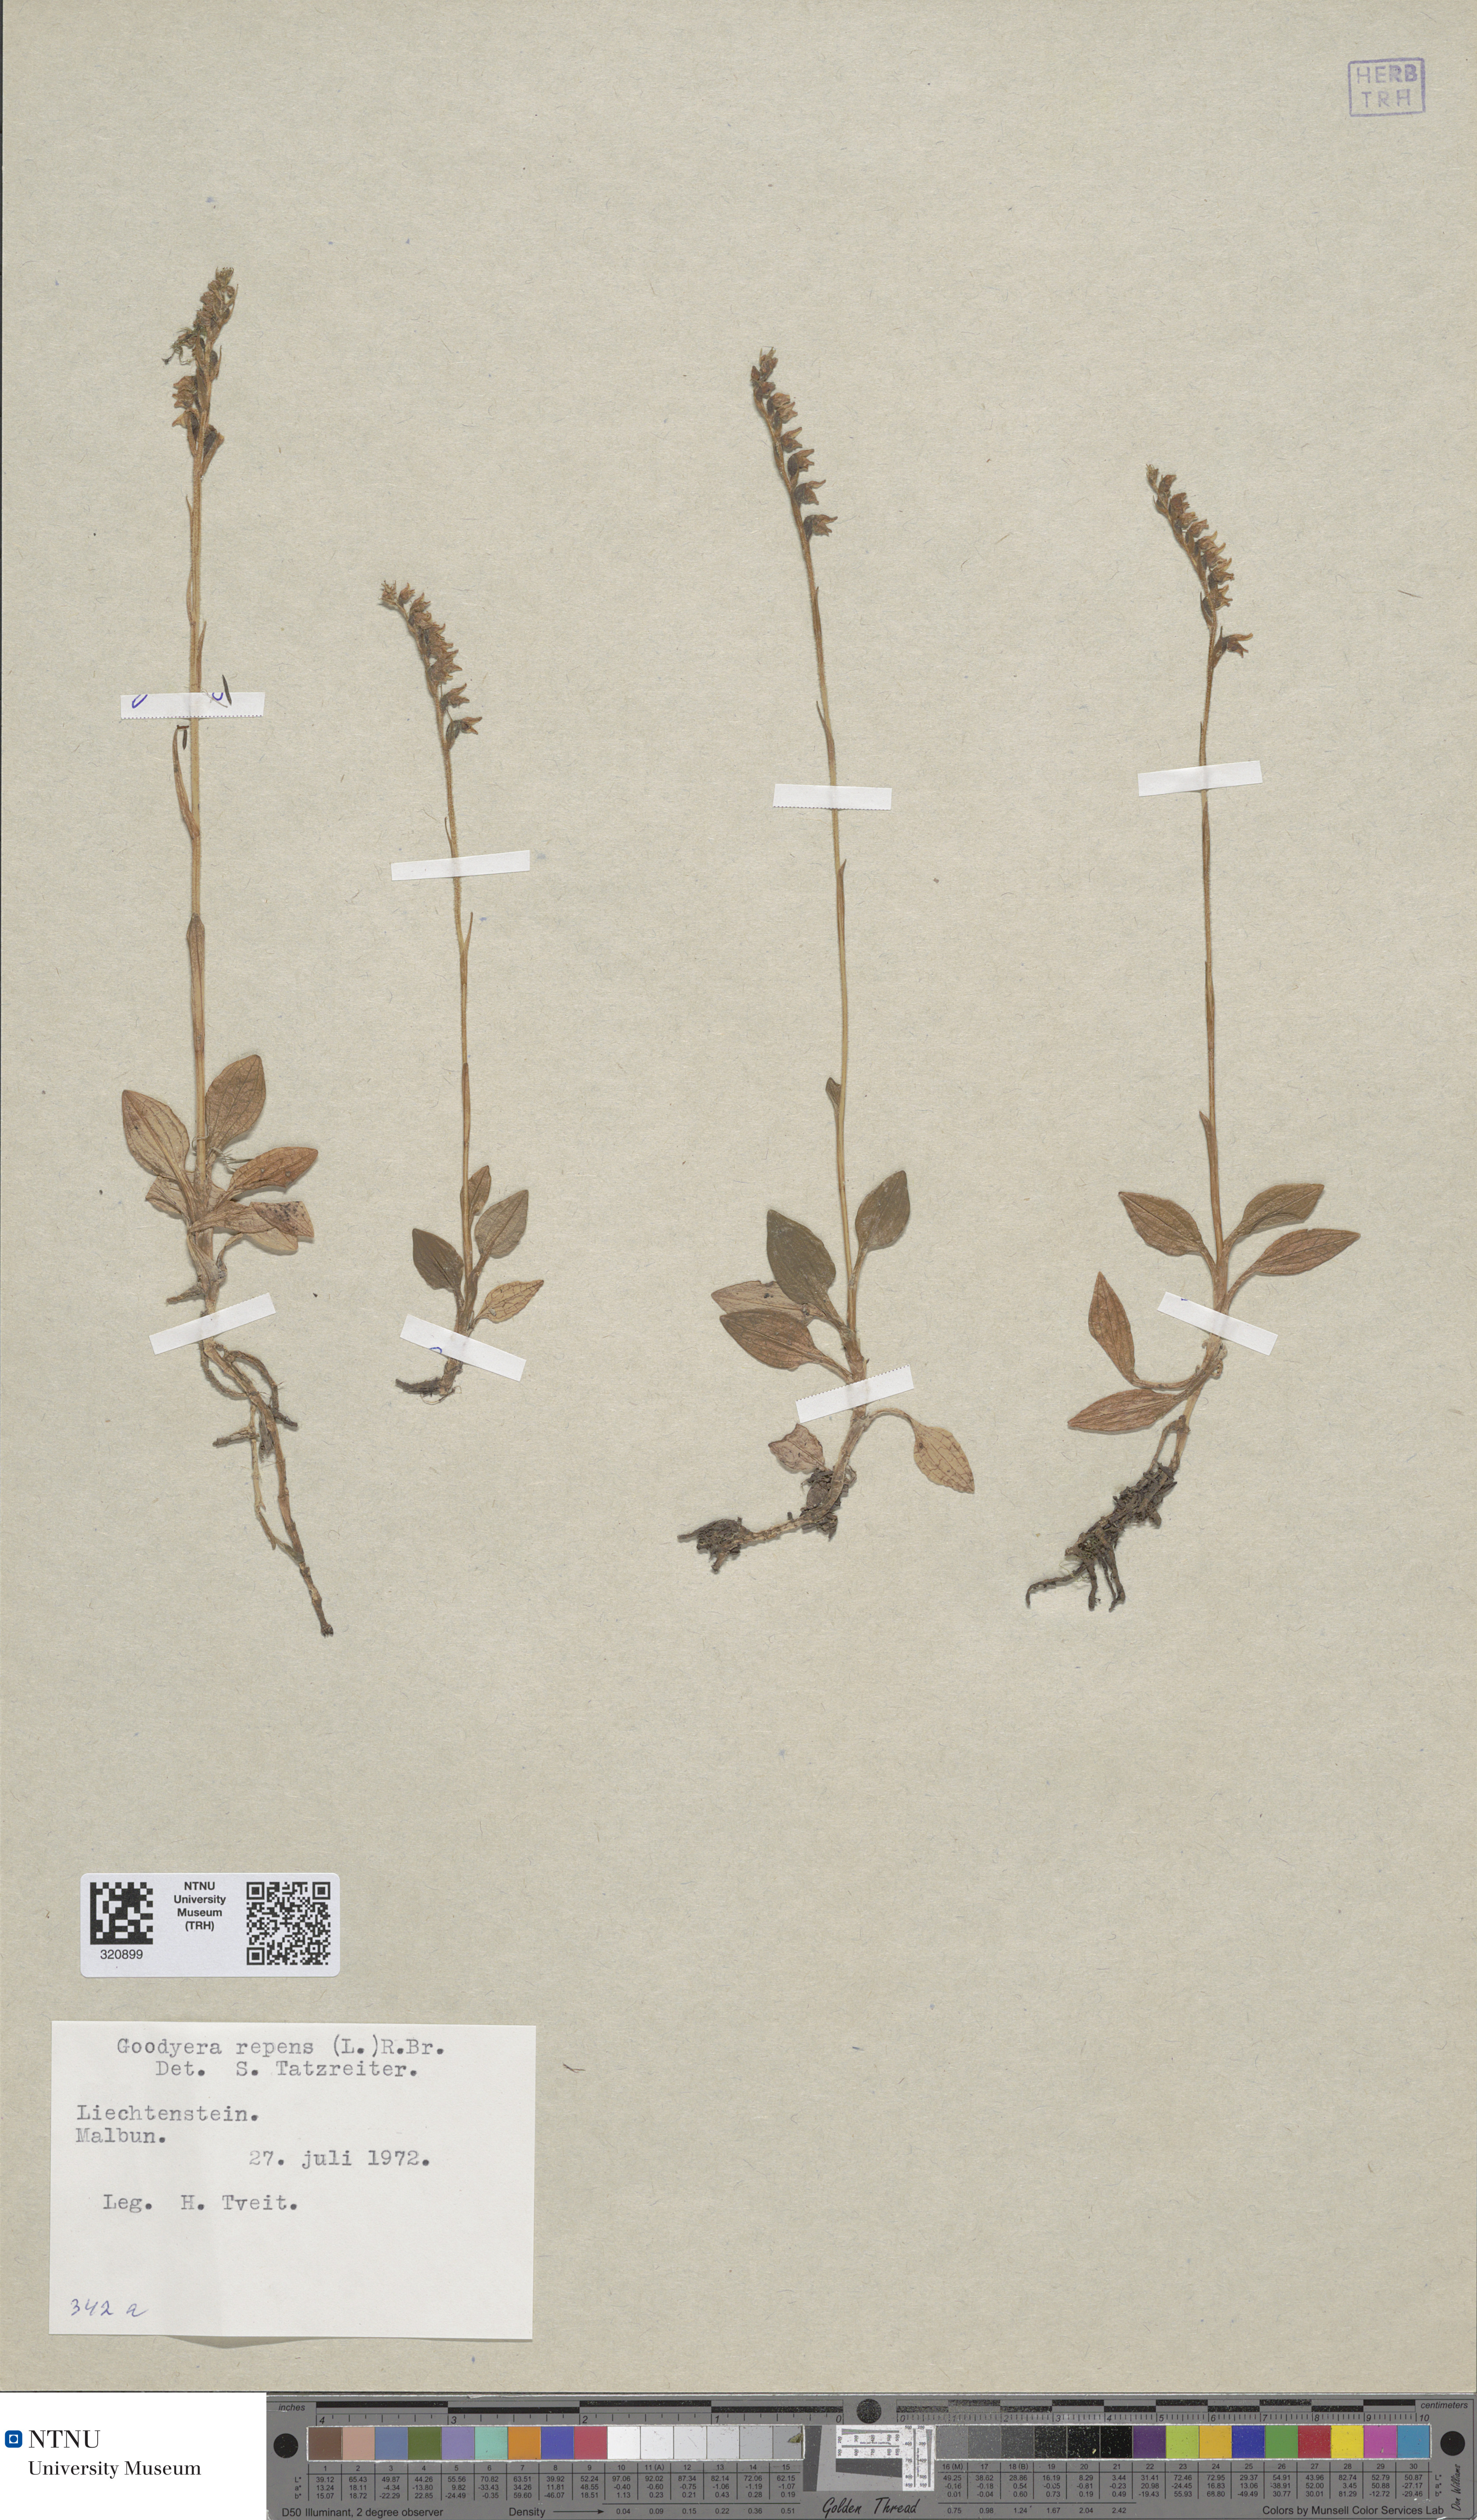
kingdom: Plantae
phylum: Tracheophyta
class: Liliopsida
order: Asparagales
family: Orchidaceae
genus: Goodyera
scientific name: Goodyera repens
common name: Creeping lady's-tresses
